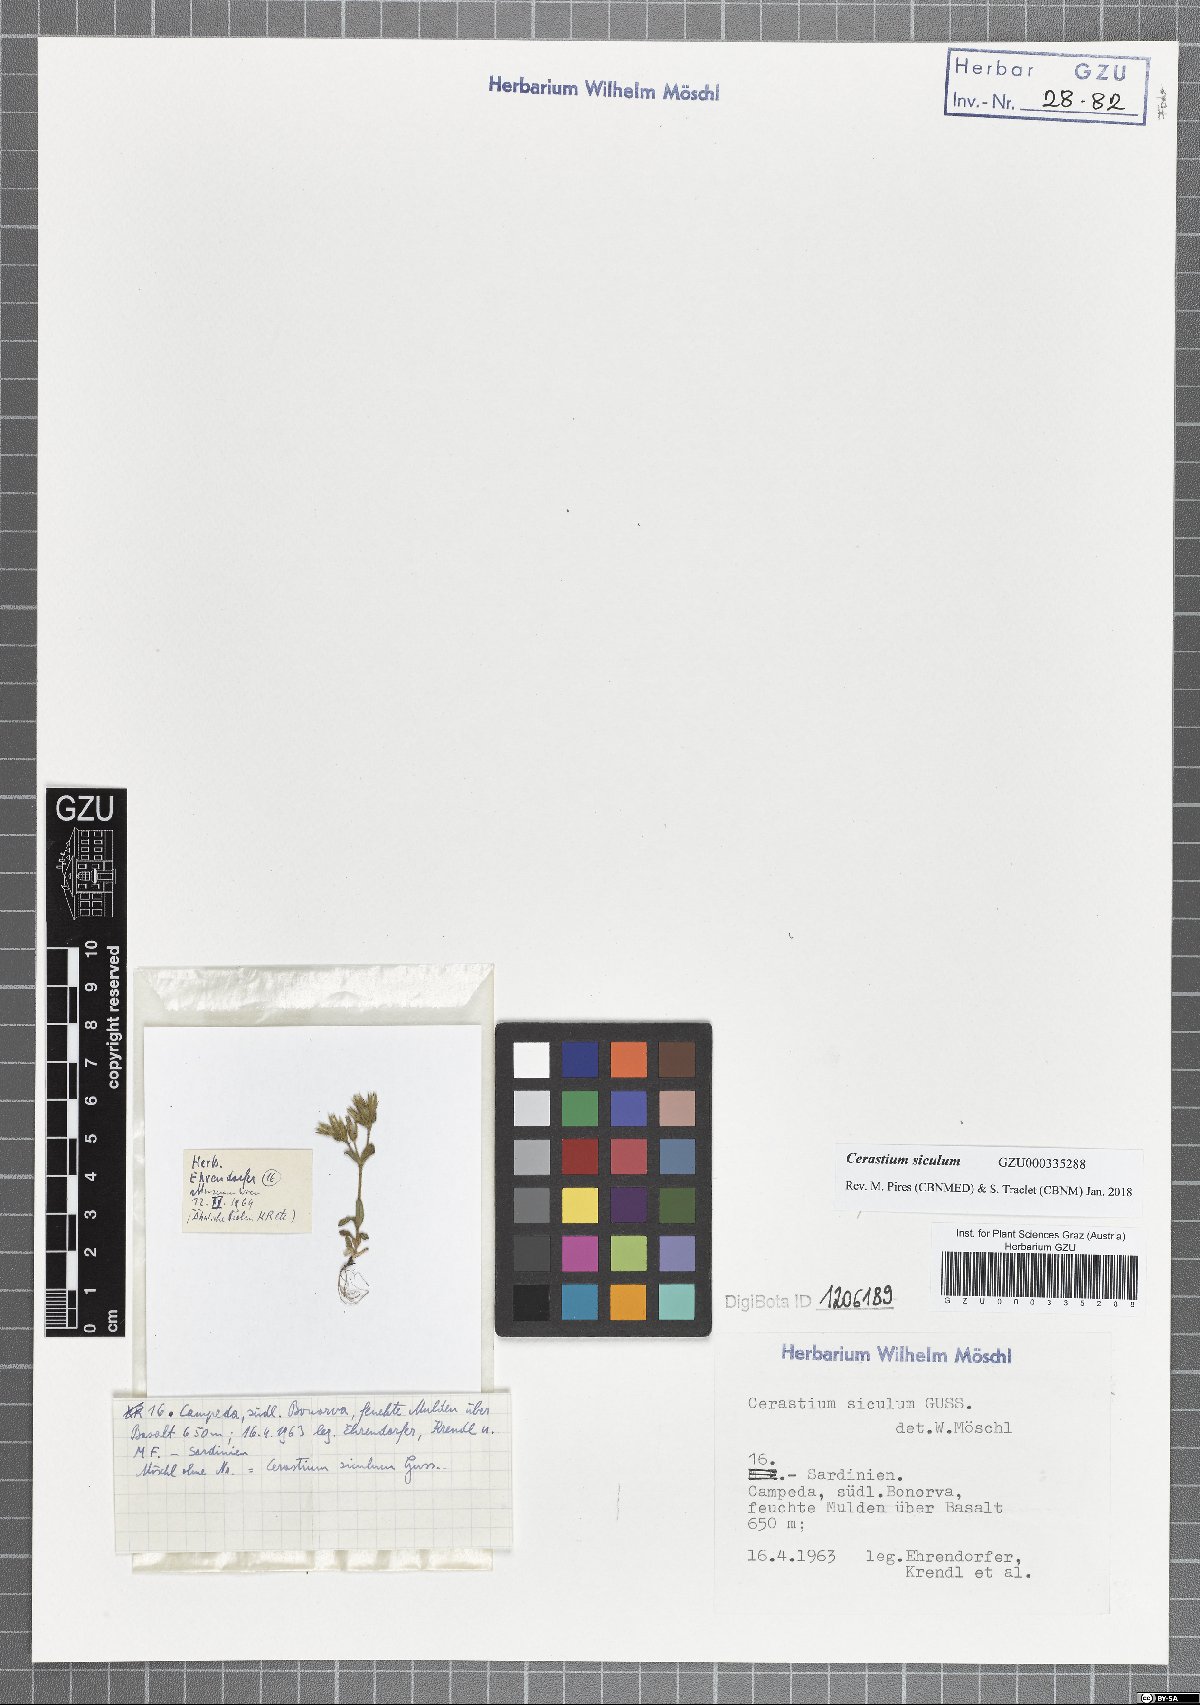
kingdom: Plantae
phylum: Tracheophyta
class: Magnoliopsida
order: Caryophyllales
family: Caryophyllaceae
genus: Cerastium
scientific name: Cerastium siculum
